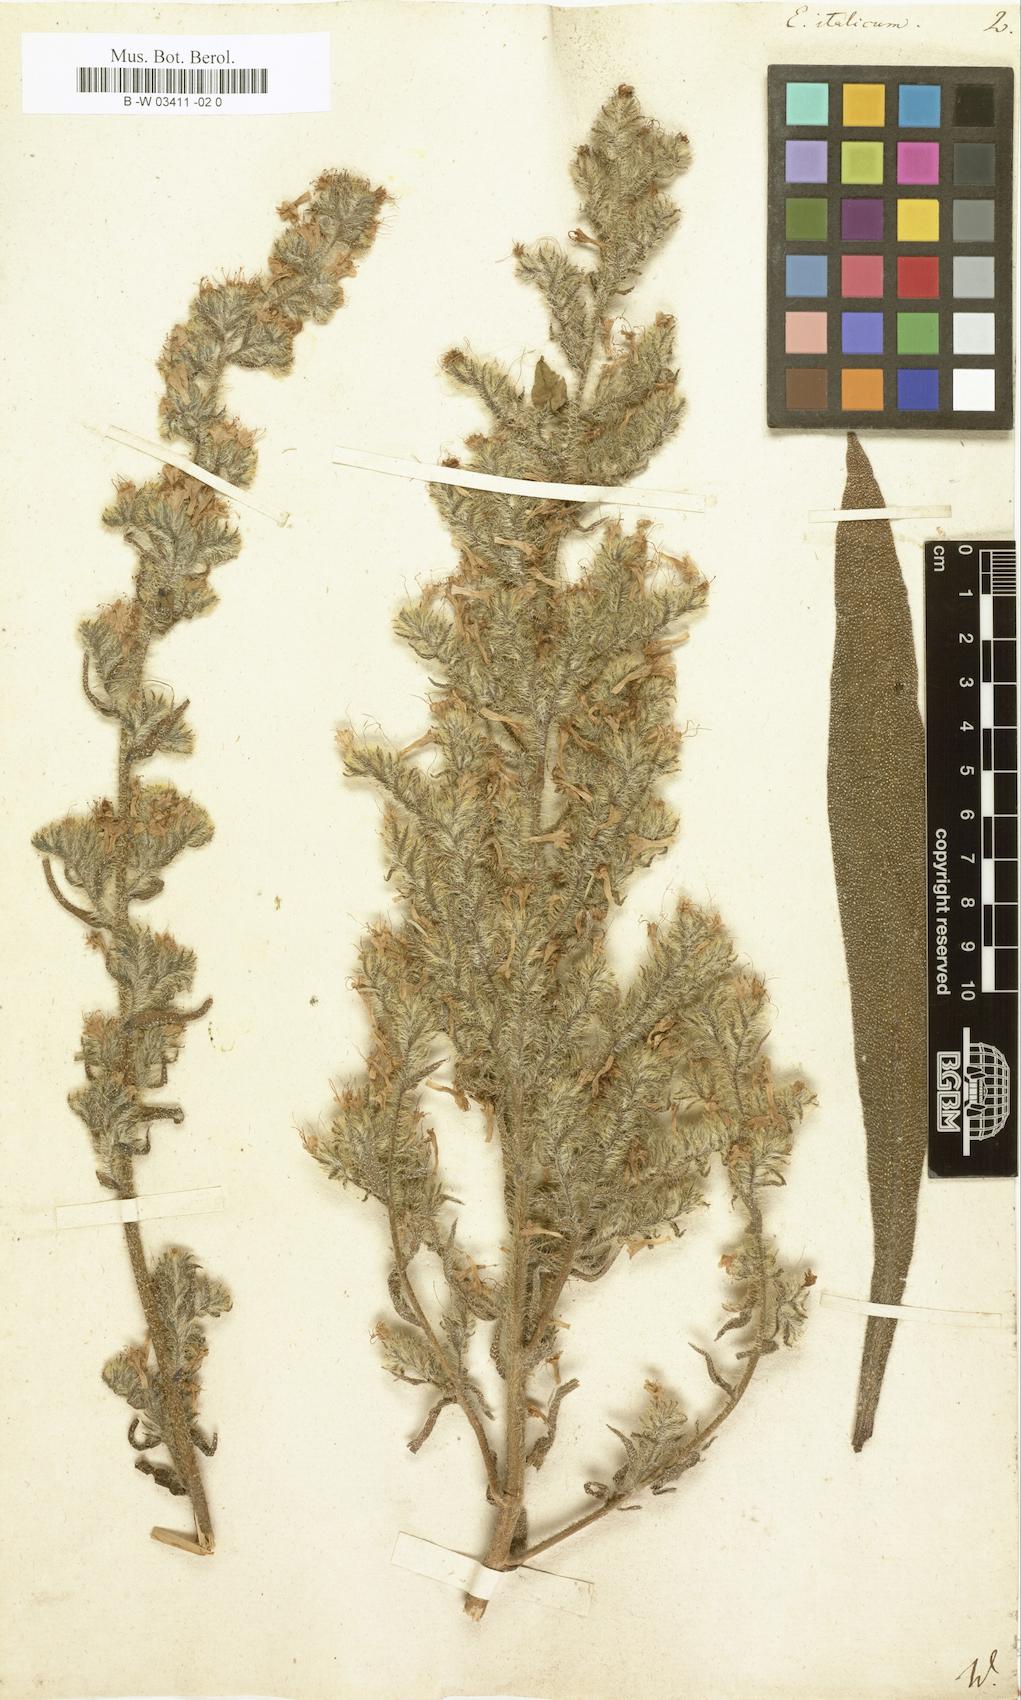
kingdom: Plantae
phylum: Tracheophyta
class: Magnoliopsida
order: Boraginales
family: Boraginaceae
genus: Echium
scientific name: Echium italicum
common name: Italian viper's bugloss
